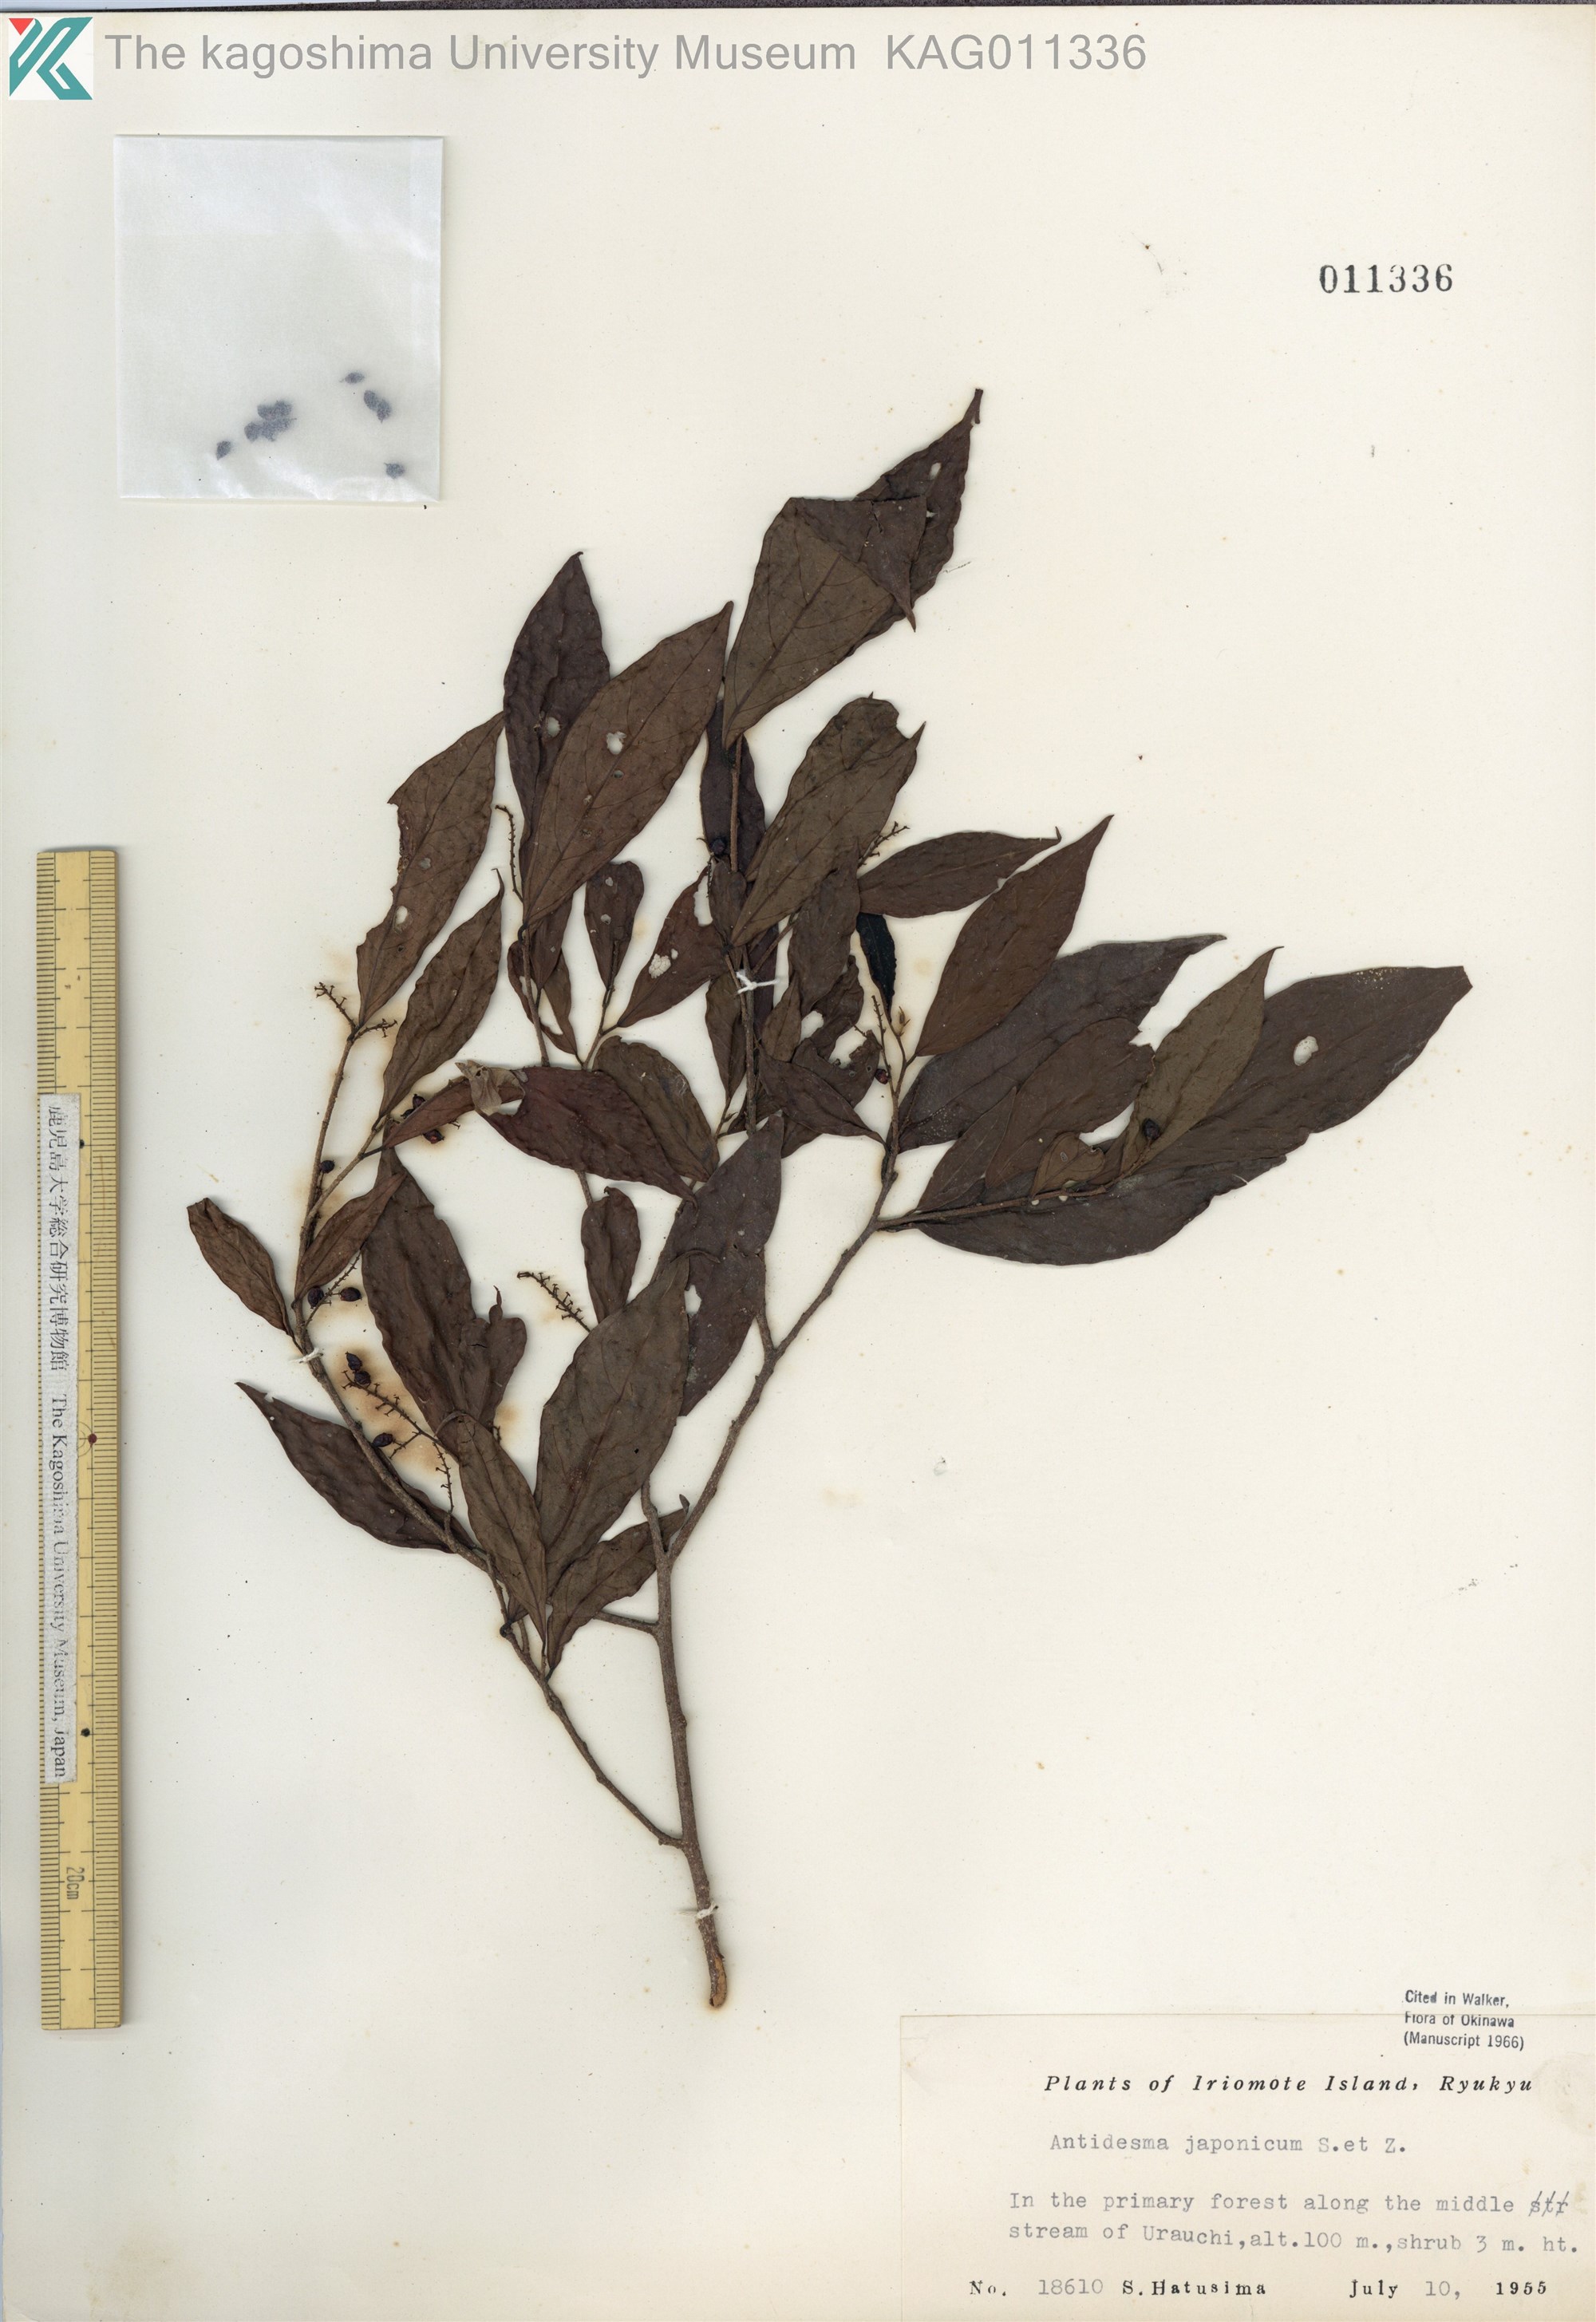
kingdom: Plantae
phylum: Tracheophyta
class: Magnoliopsida
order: Malpighiales
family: Phyllanthaceae
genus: Antidesma
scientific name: Antidesma japonicum
